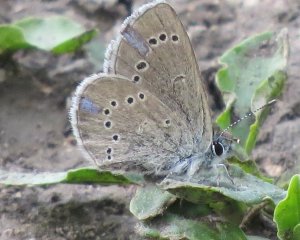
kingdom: Animalia
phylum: Arthropoda
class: Insecta
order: Lepidoptera
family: Lycaenidae
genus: Glaucopsyche
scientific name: Glaucopsyche lygdamus
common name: Silvery Blue
